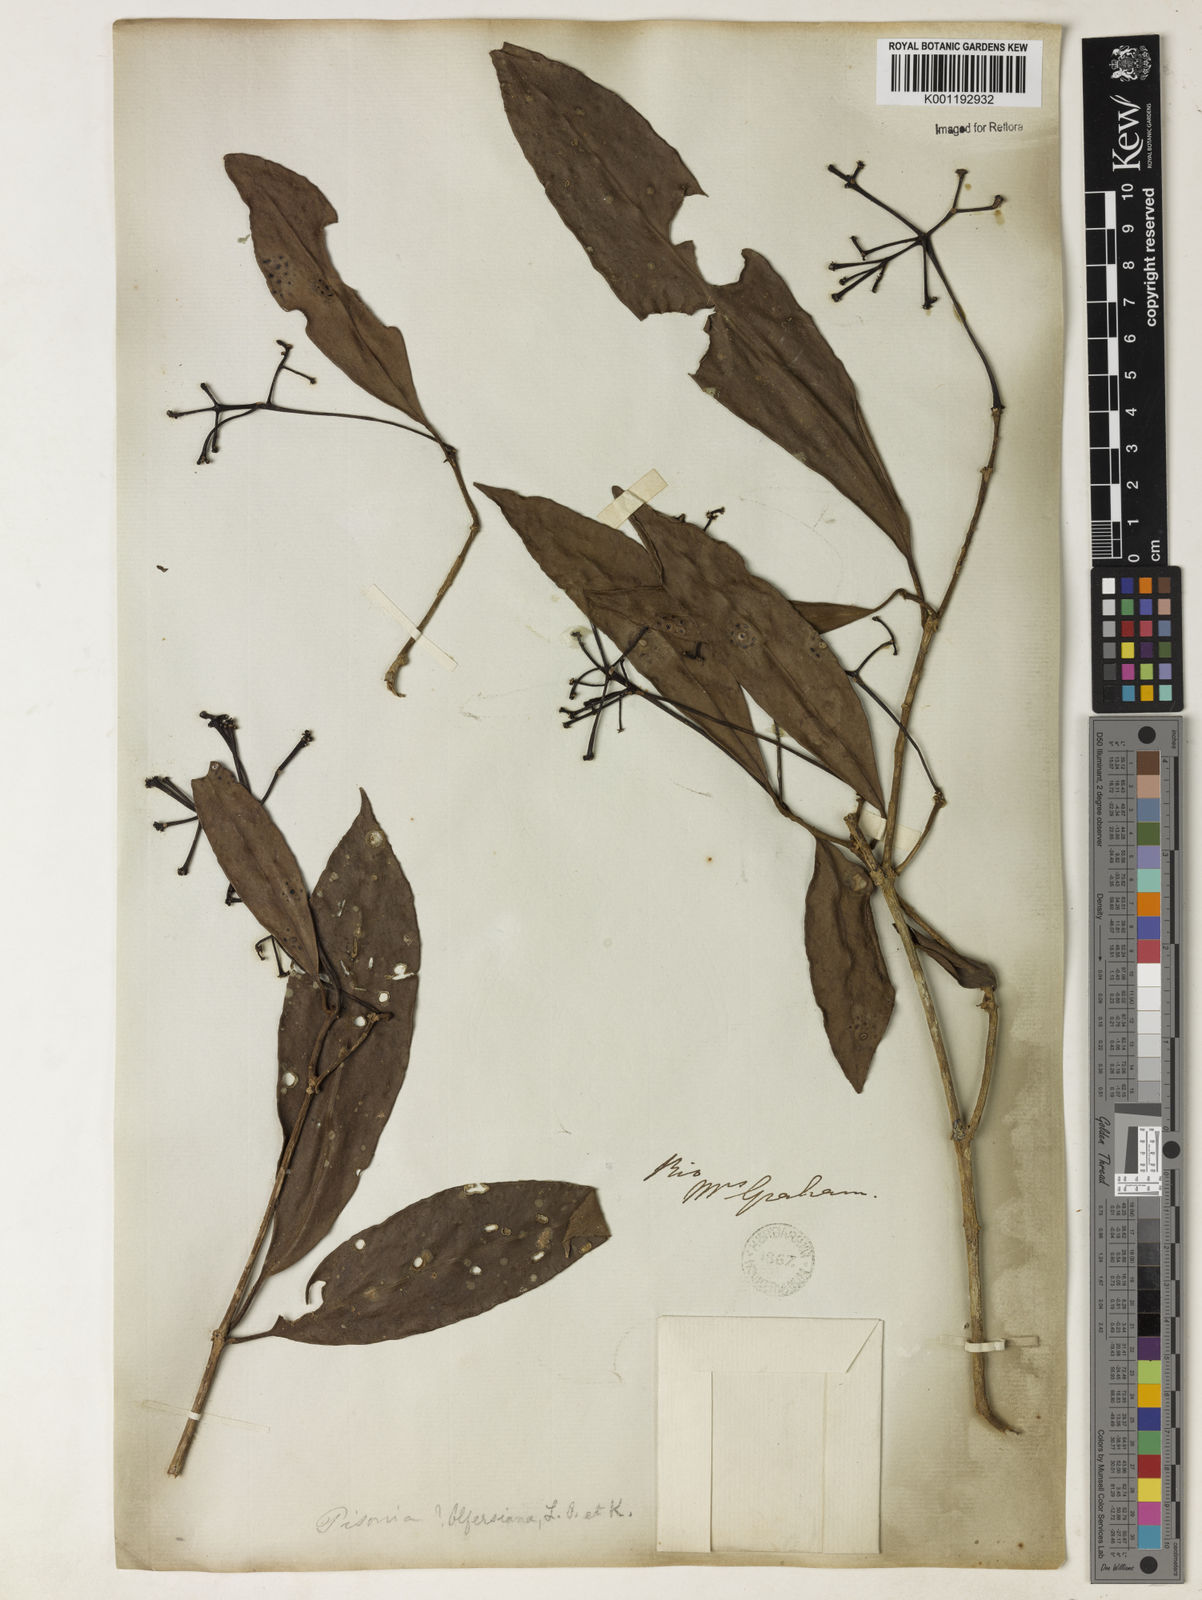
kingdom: Plantae
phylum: Tracheophyta
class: Magnoliopsida
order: Caryophyllales
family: Nyctaginaceae
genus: Guapira
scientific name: Guapira
